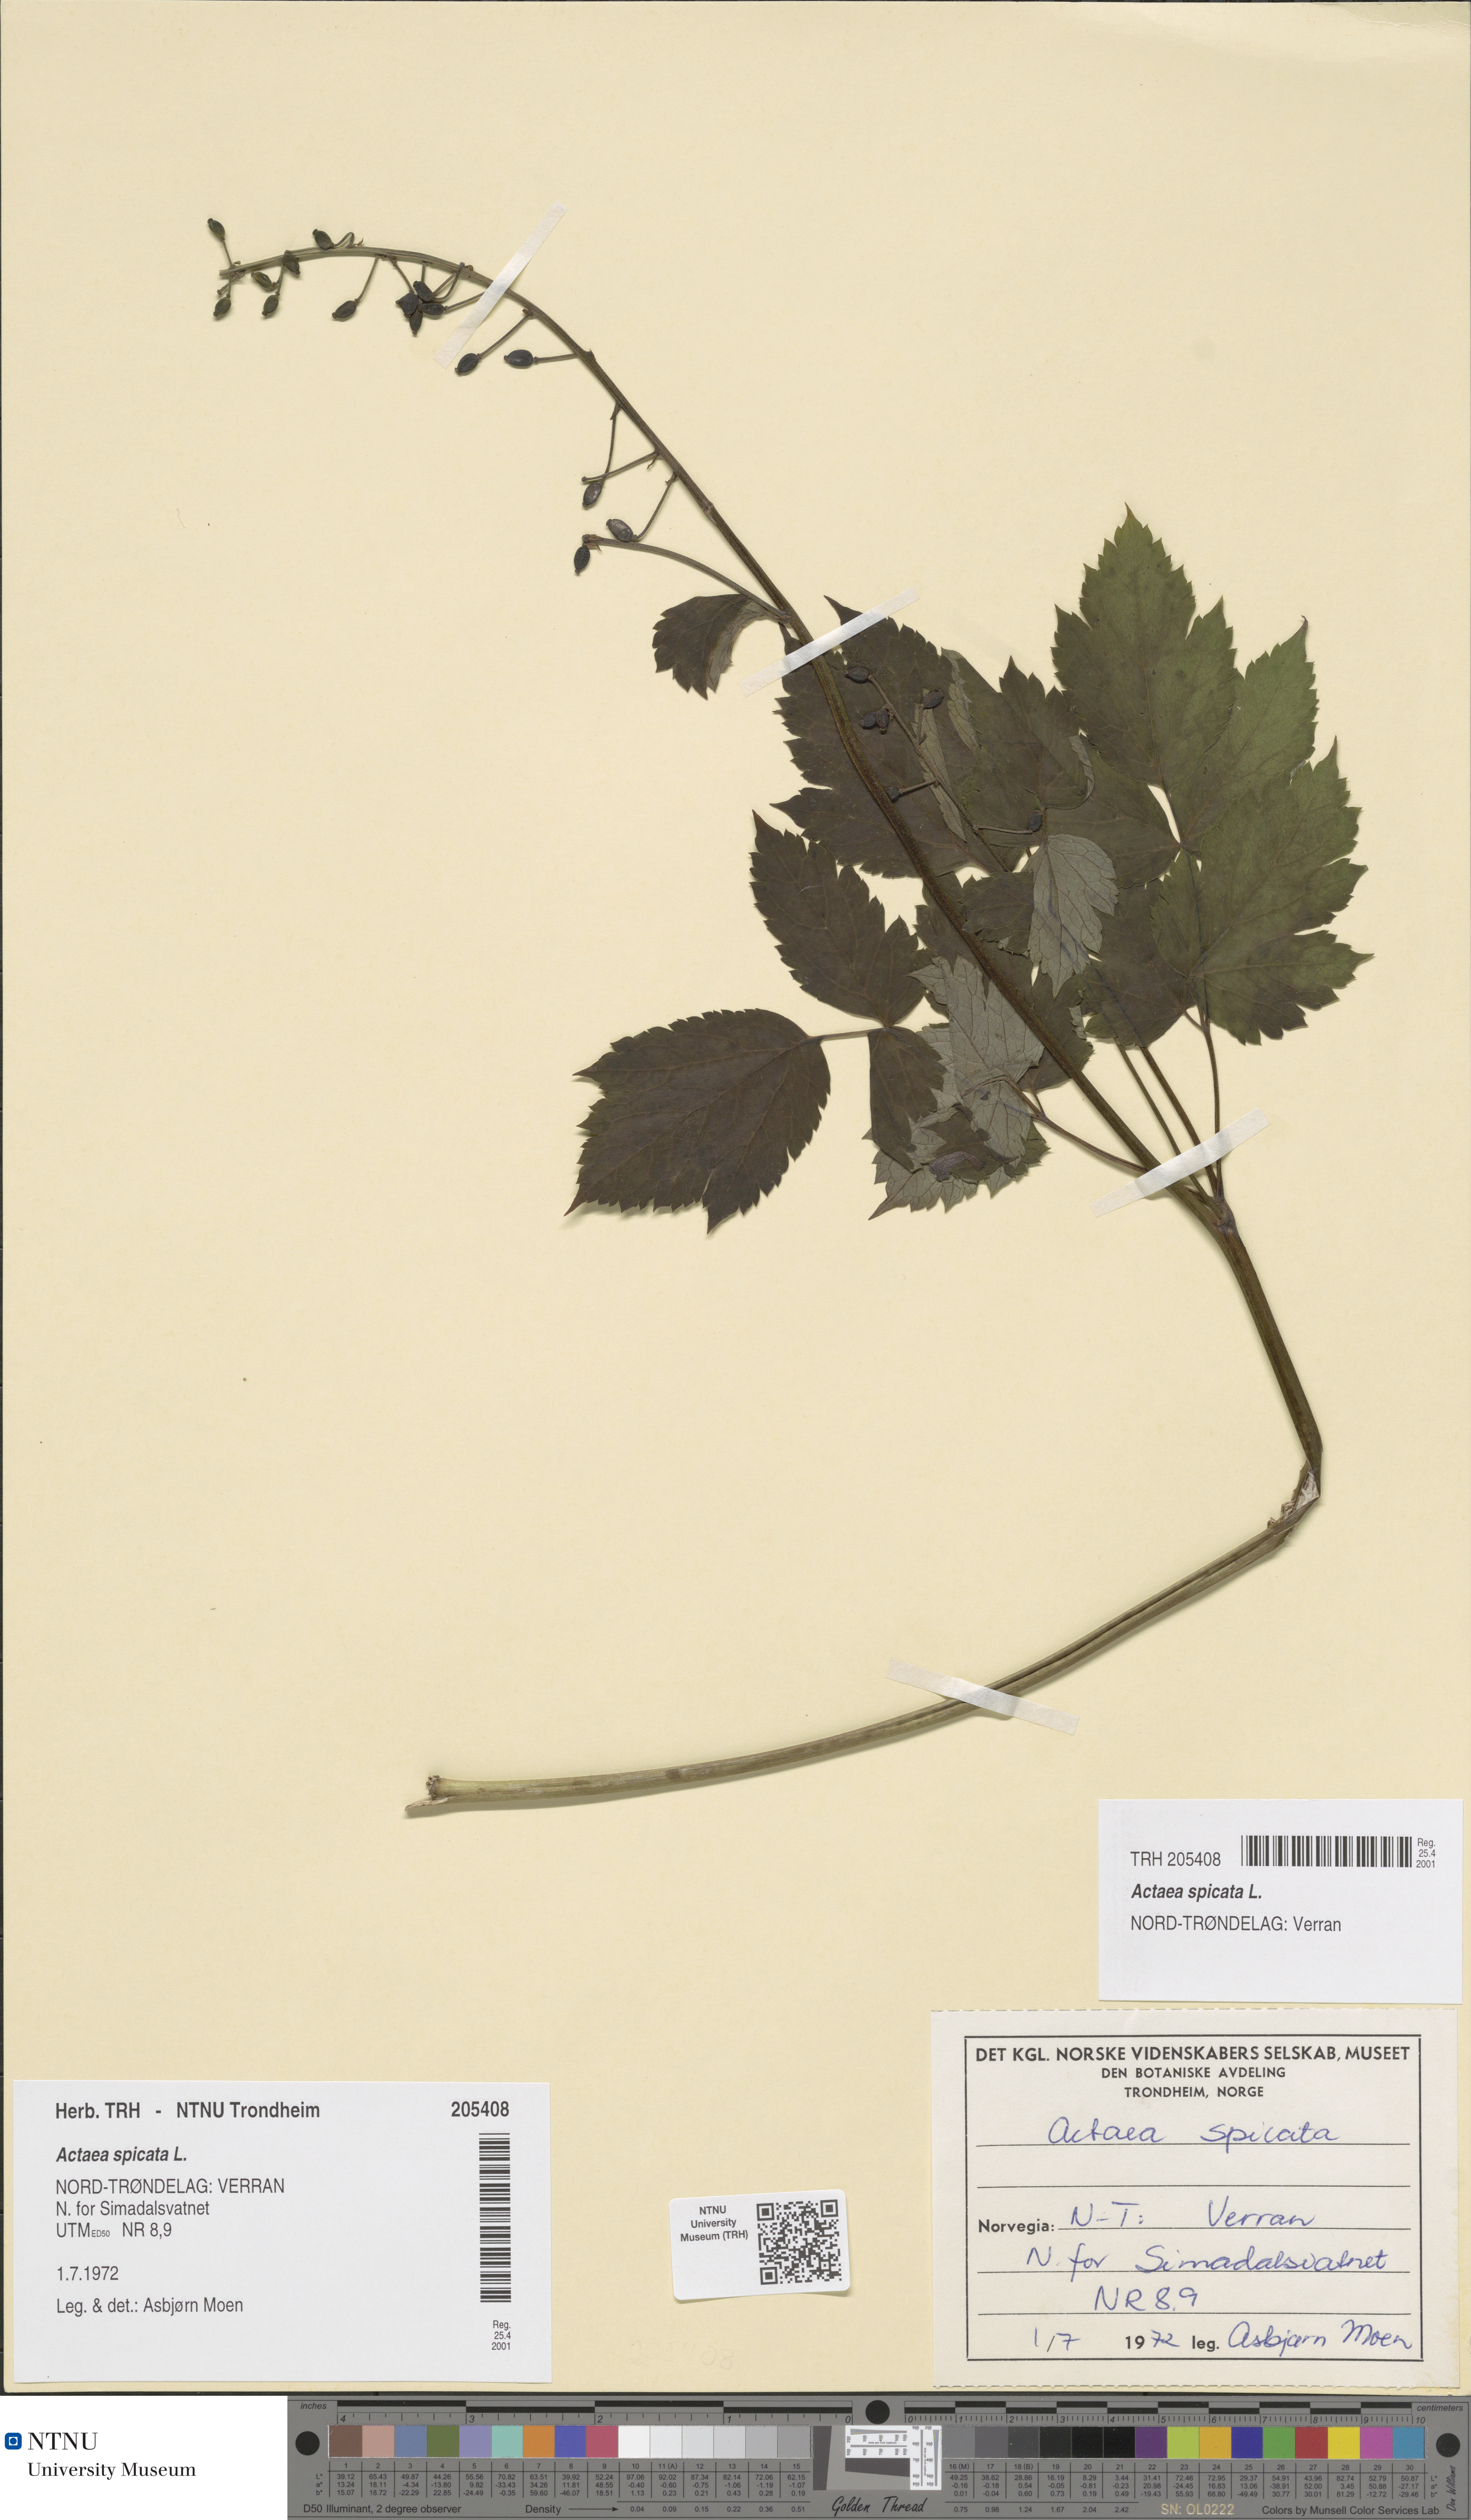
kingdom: Plantae
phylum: Tracheophyta
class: Magnoliopsida
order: Ranunculales
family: Ranunculaceae
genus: Actaea
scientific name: Actaea spicata
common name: Baneberry
